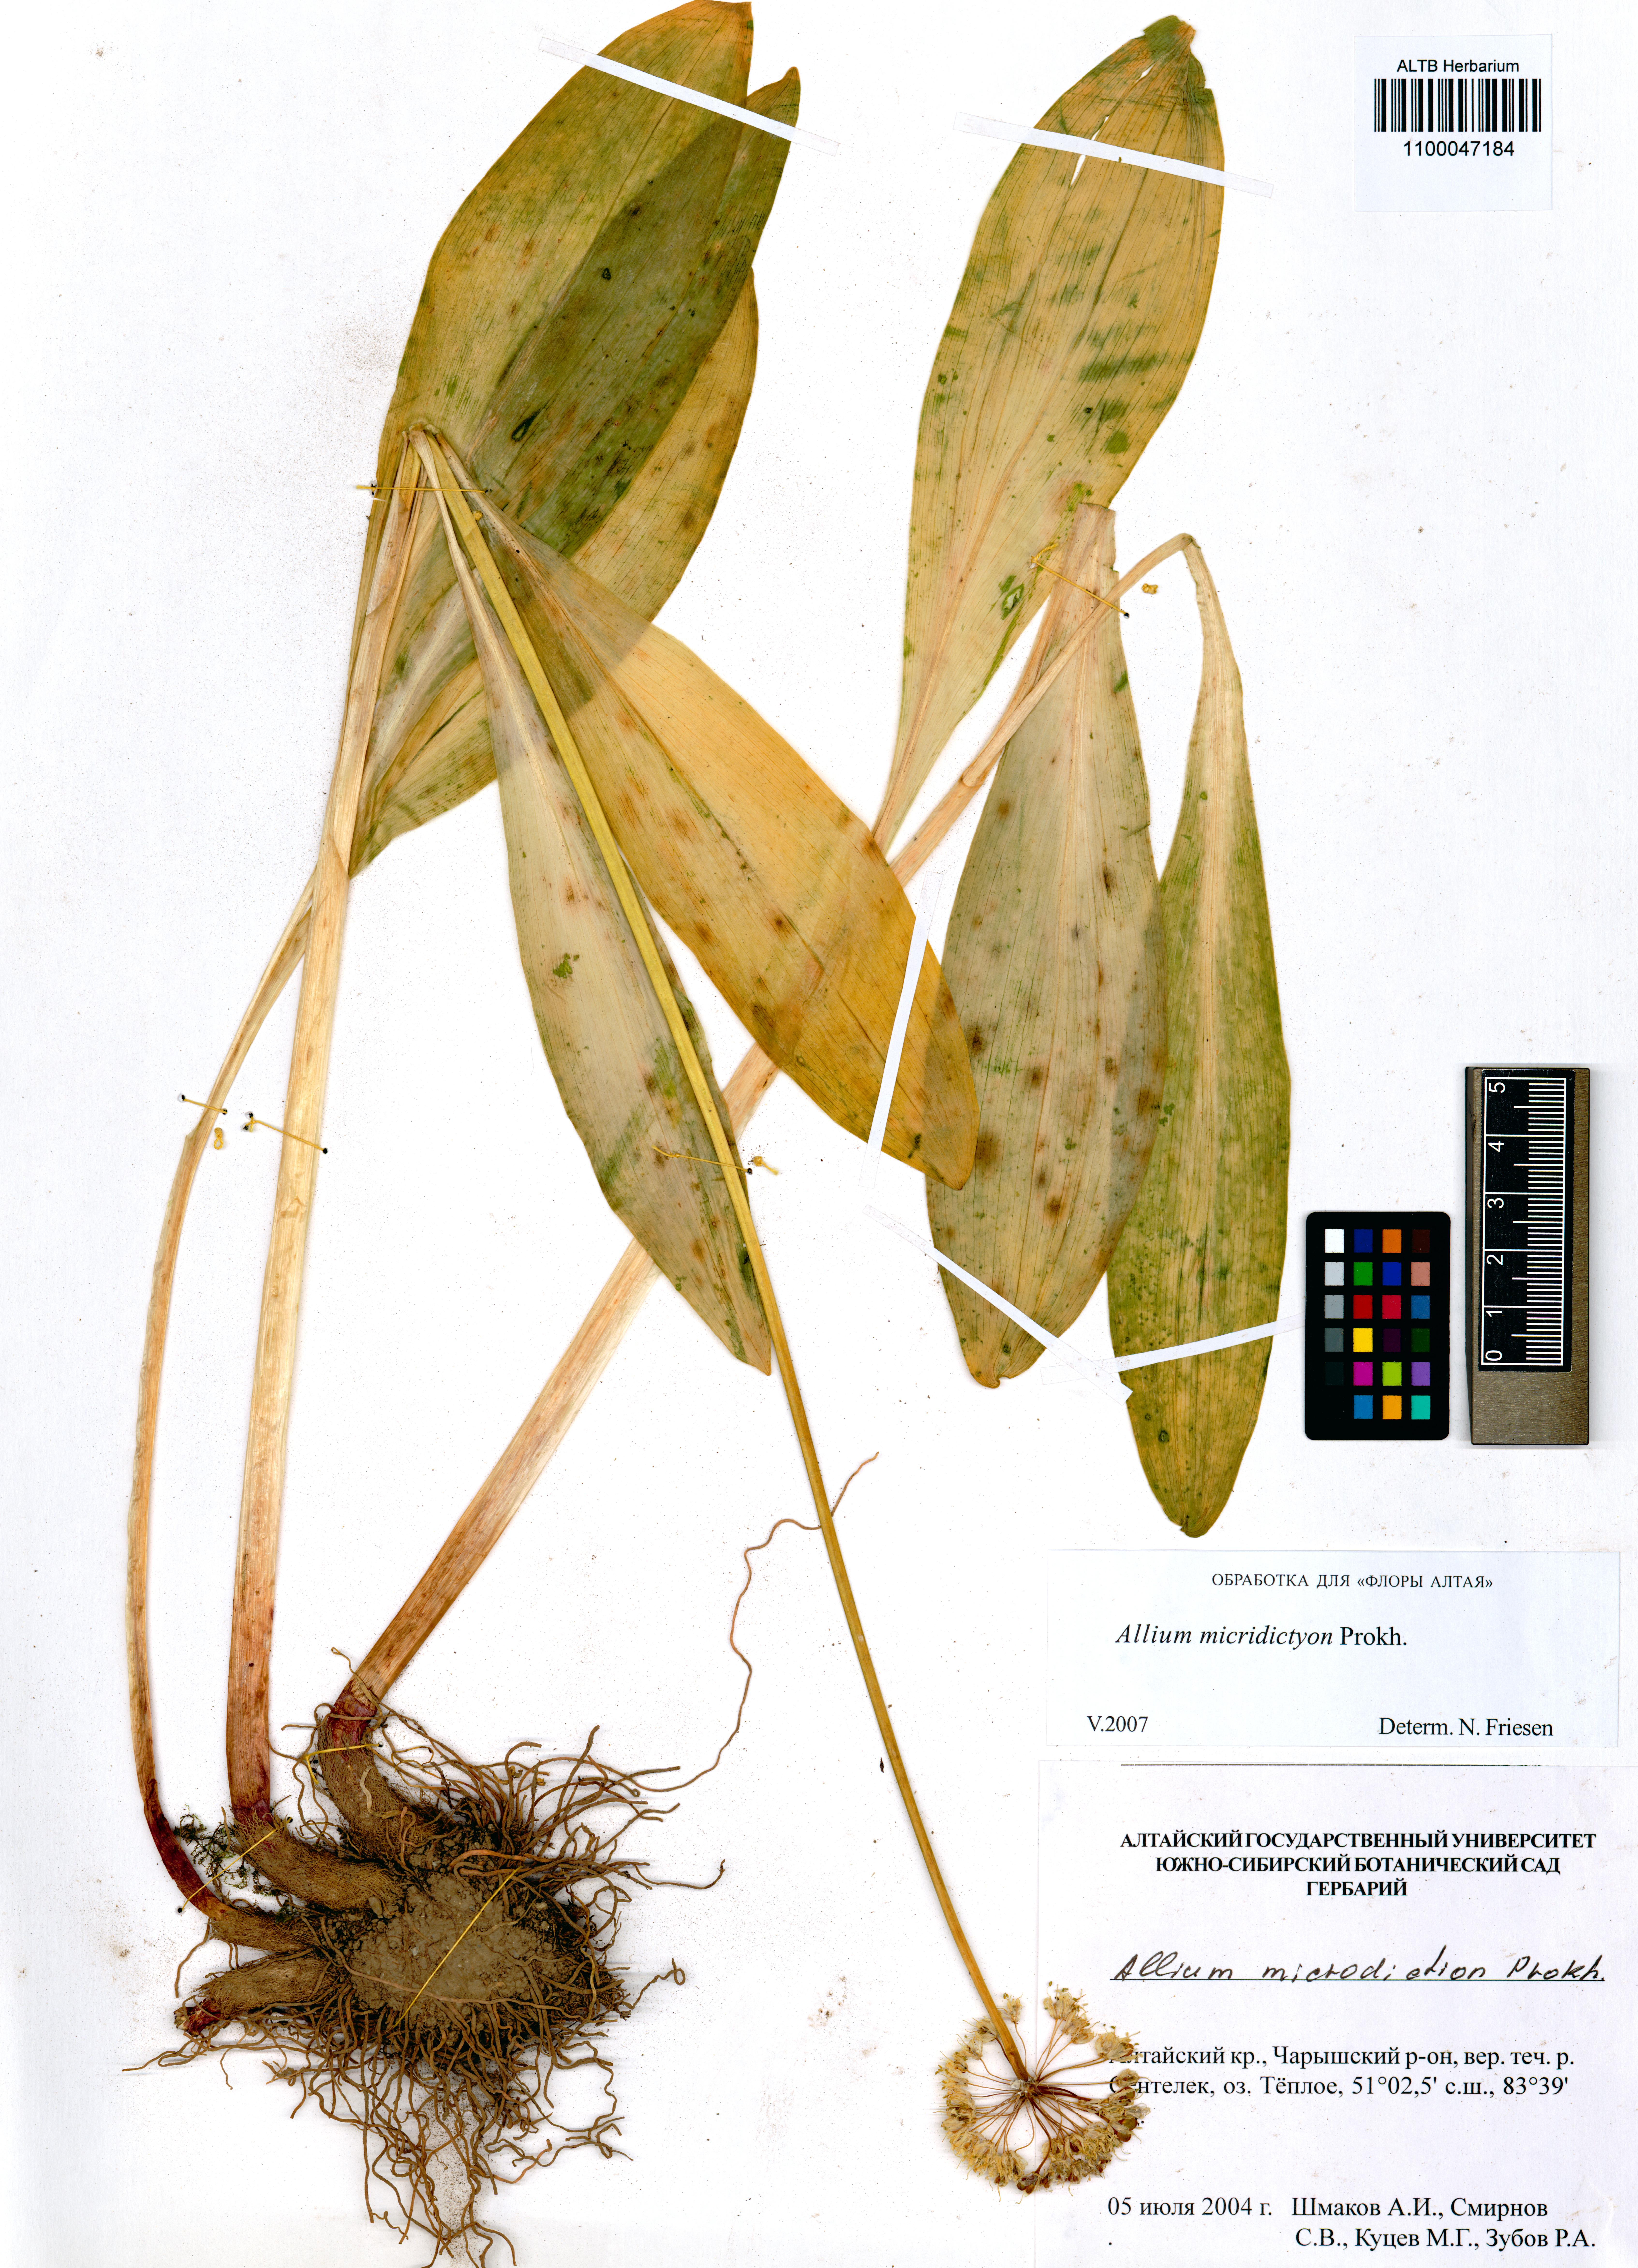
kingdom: Plantae
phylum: Tracheophyta
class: Liliopsida
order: Asparagales
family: Amaryllidaceae
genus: Allium
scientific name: Allium microdictyon
